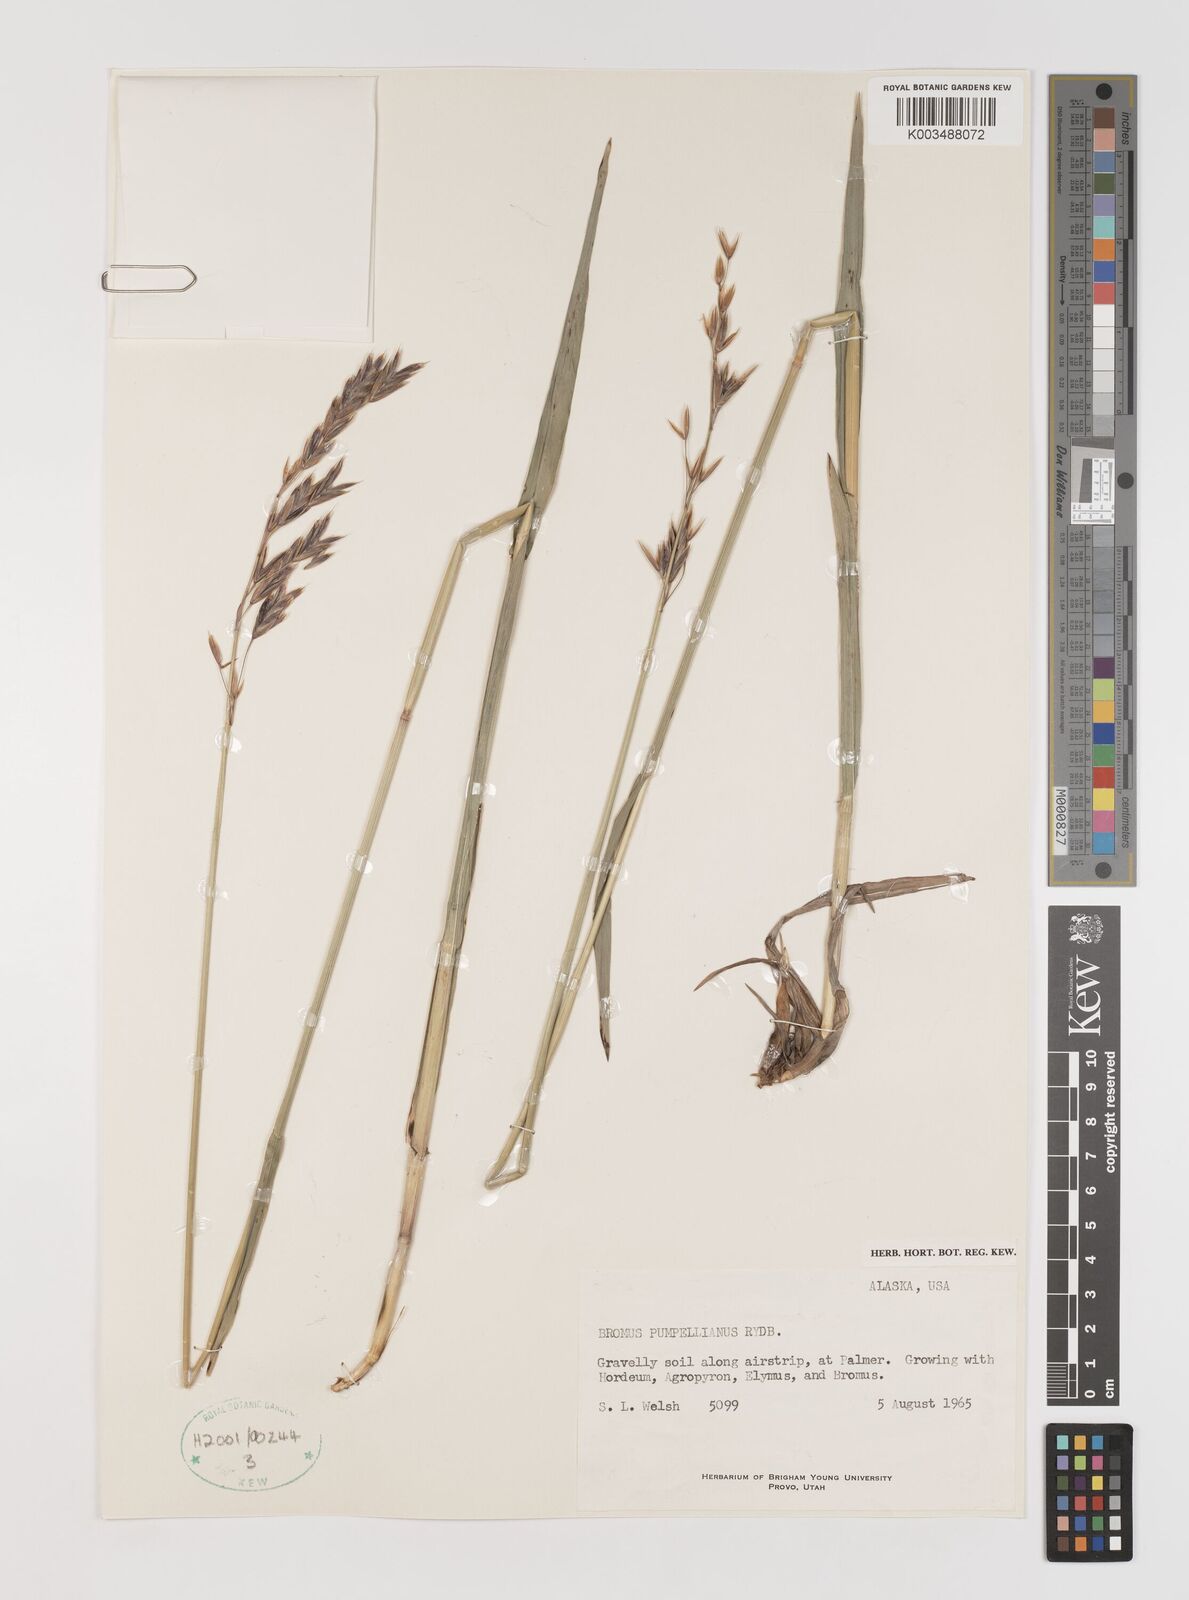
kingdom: Plantae
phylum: Tracheophyta
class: Liliopsida
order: Poales
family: Poaceae
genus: Bromus
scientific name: Bromus pumpellianus
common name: Pumpelly's brome
